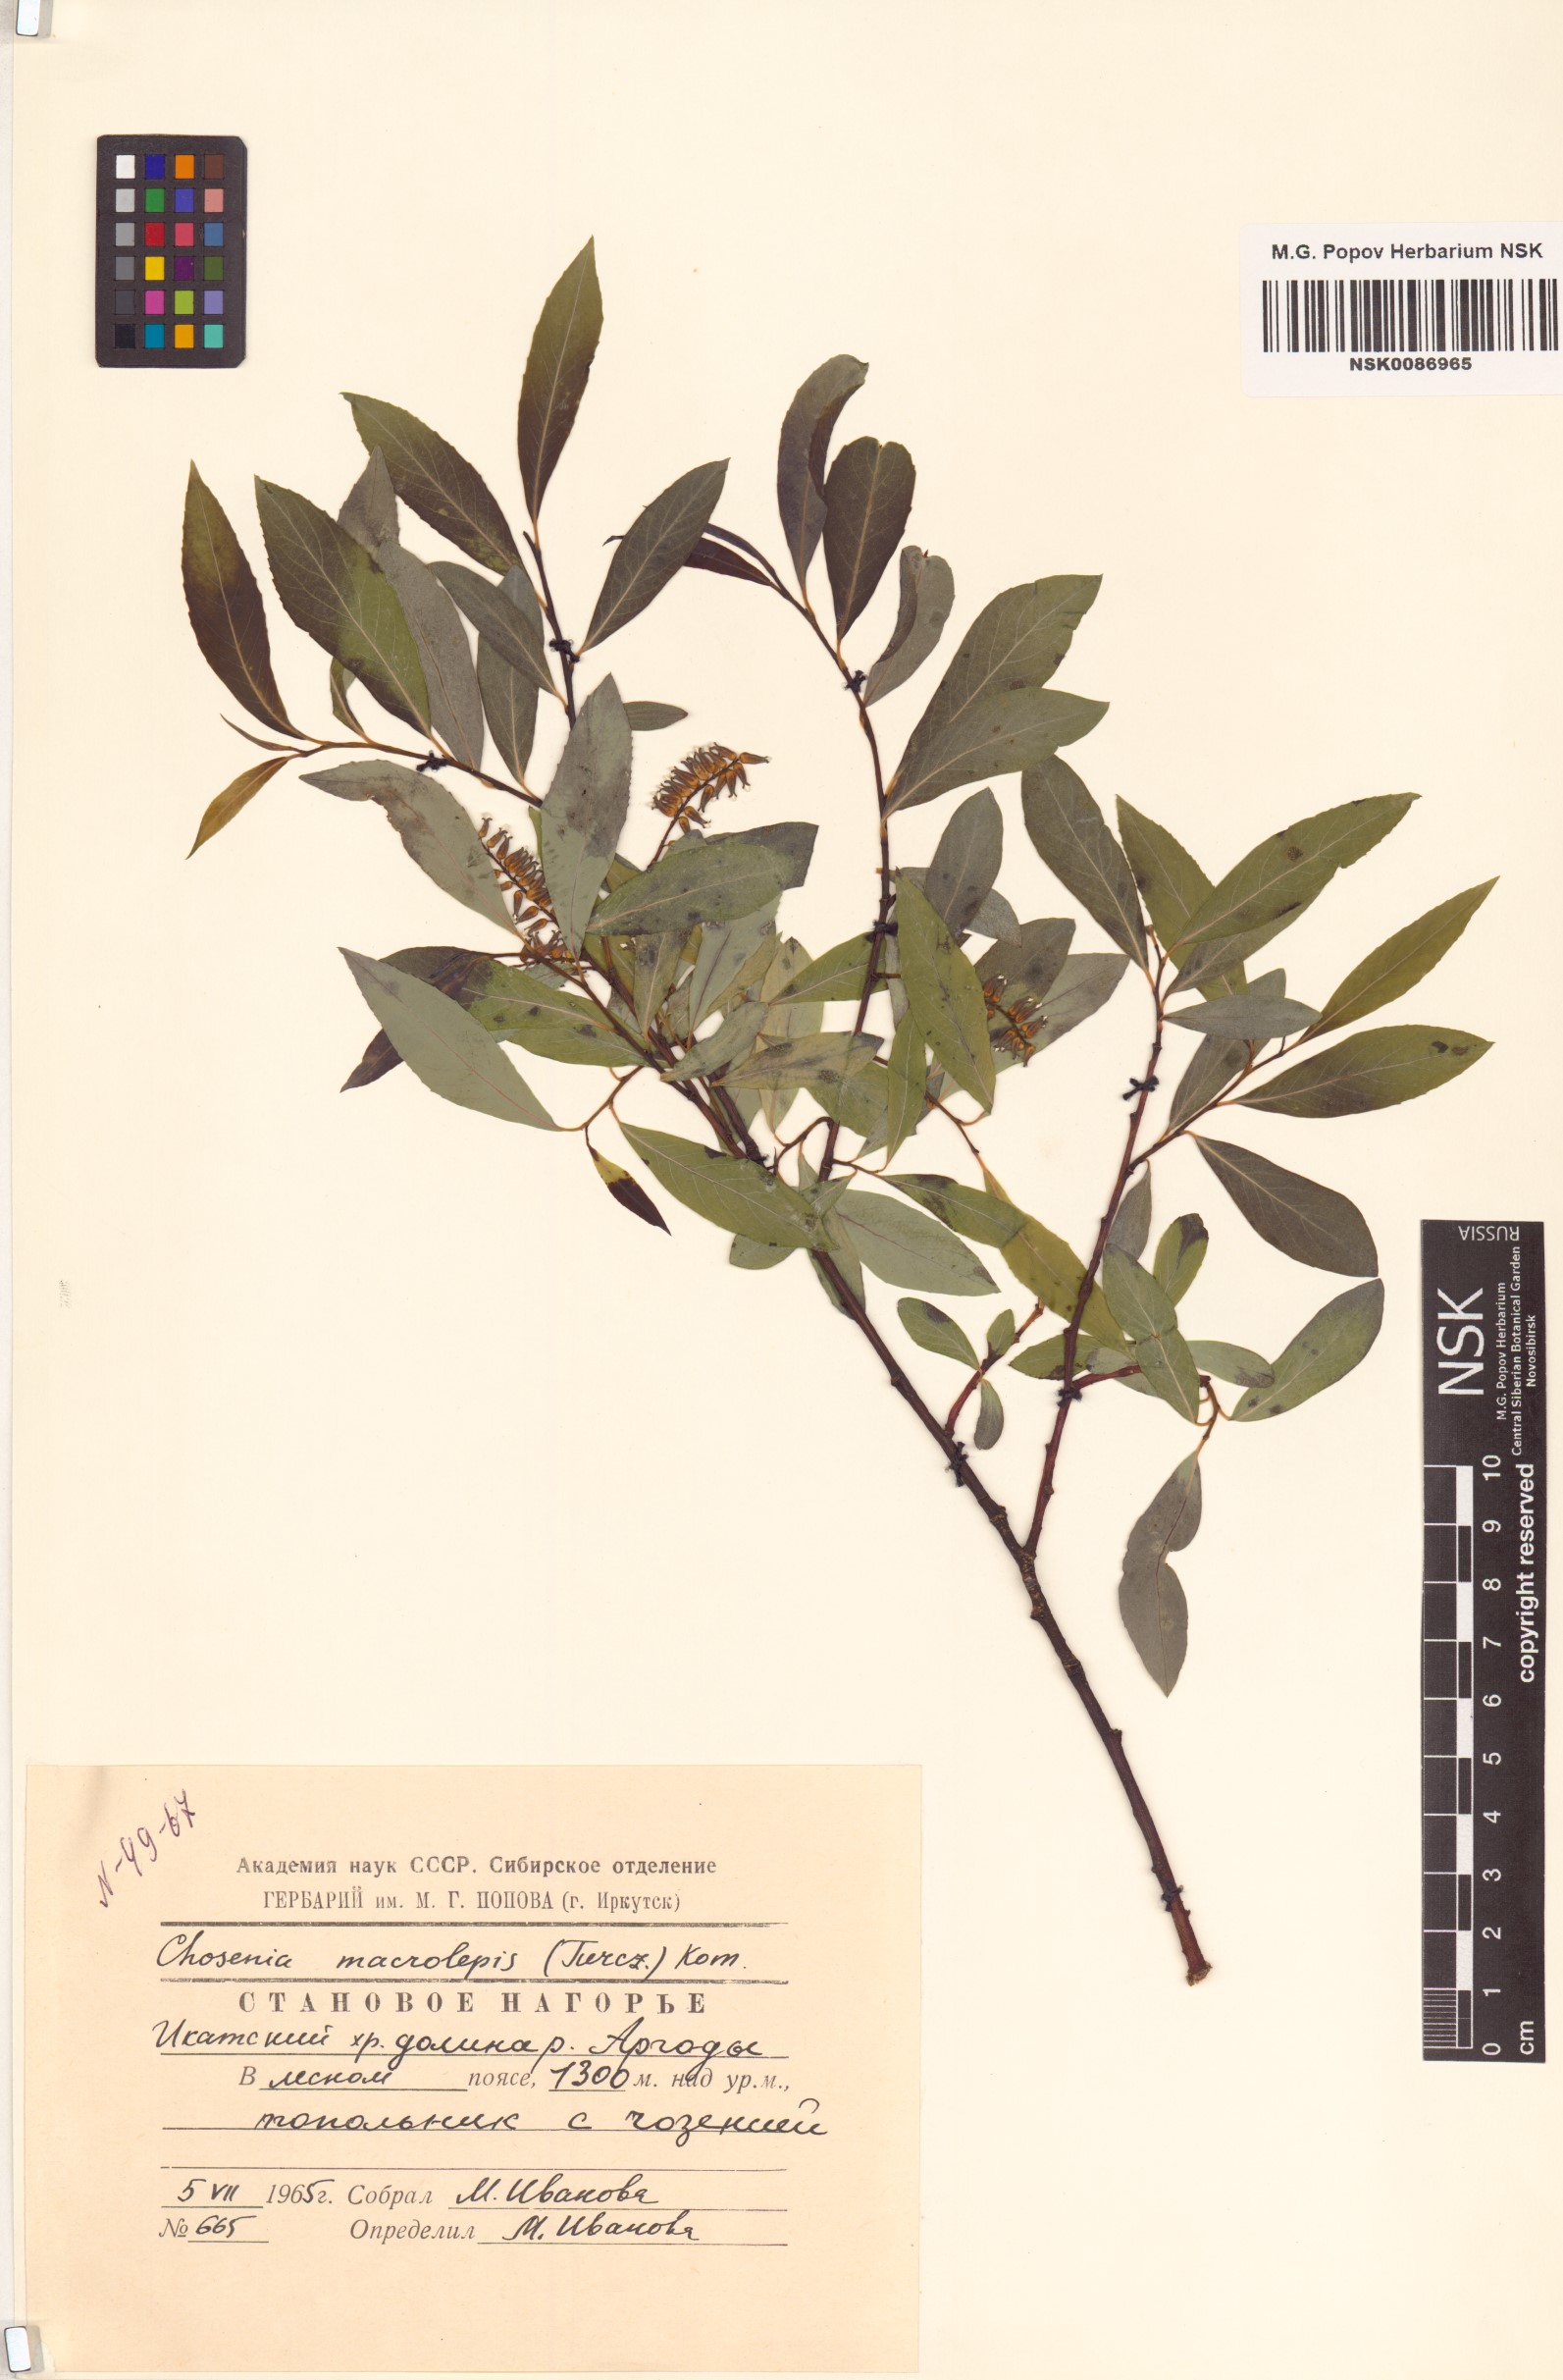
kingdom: Plantae
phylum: Tracheophyta
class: Magnoliopsida
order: Malpighiales
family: Salicaceae
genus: Chosenia
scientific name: Chosenia arbutifolia
